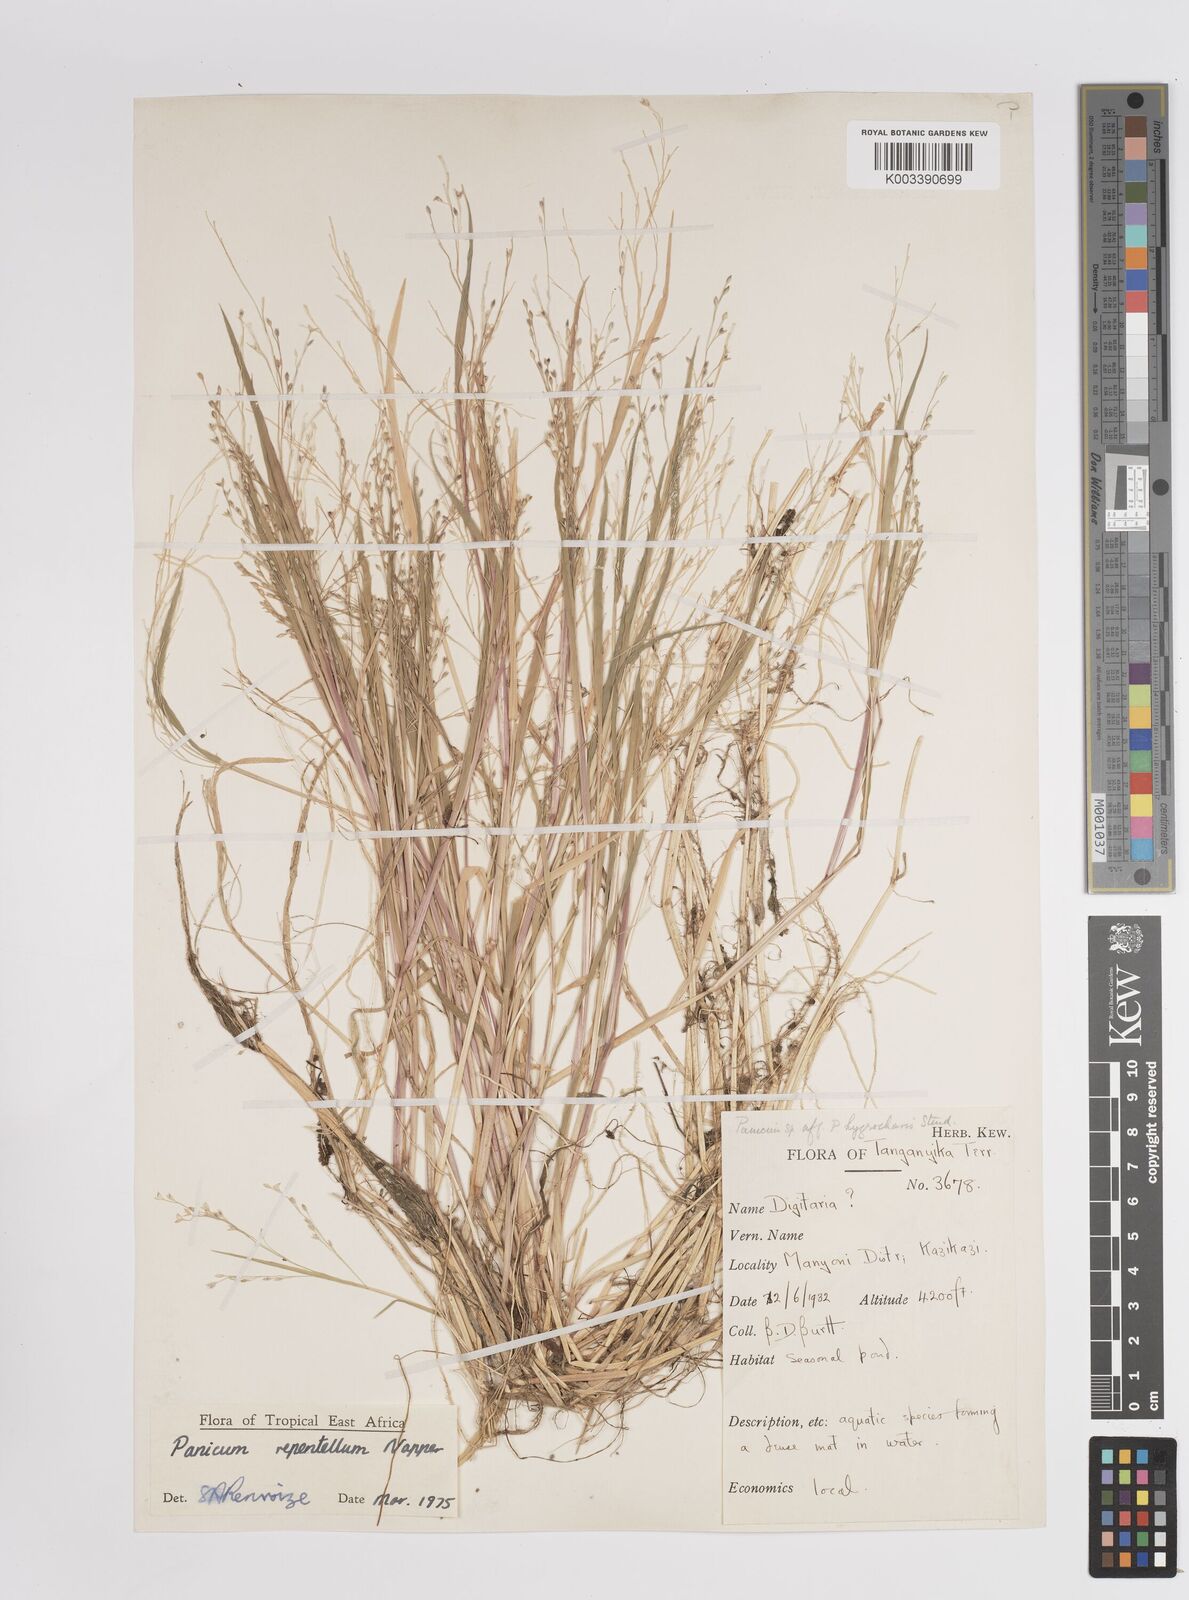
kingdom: Plantae
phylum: Tracheophyta
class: Liliopsida
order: Poales
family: Poaceae
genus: Panicum
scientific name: Panicum hygrocharis
